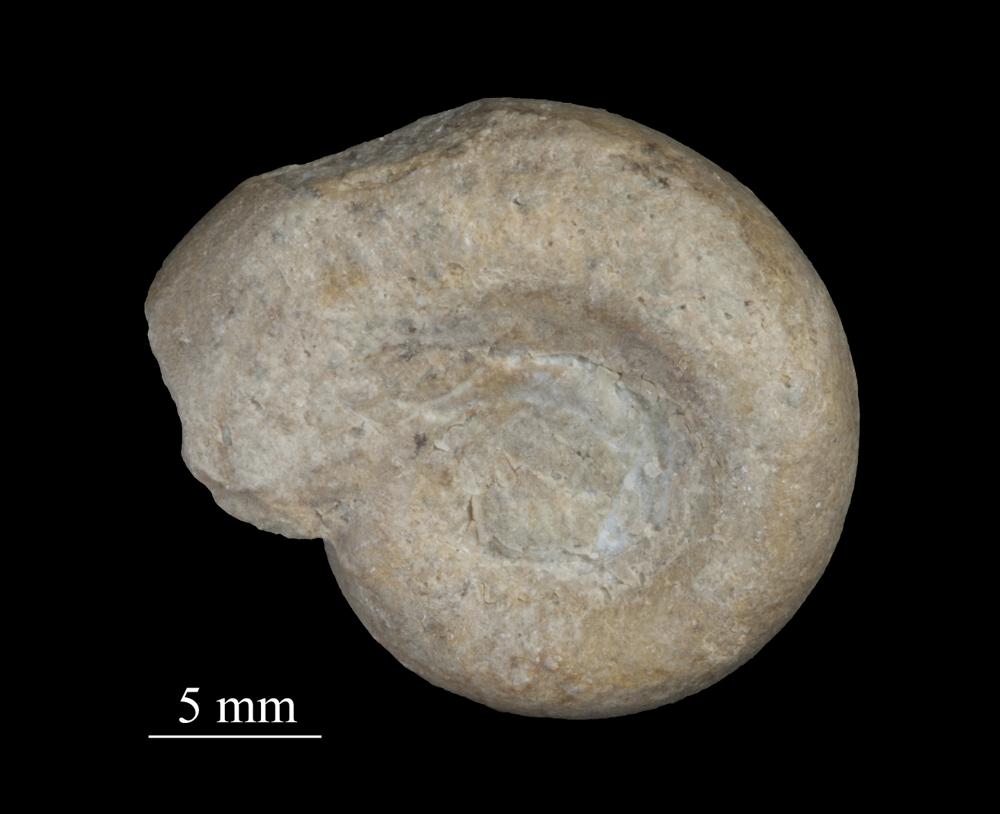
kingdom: Animalia
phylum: Mollusca
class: Gastropoda
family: Lesueurillidae
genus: Mestoronema
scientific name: Mestoronema Euomphalus marginalis
